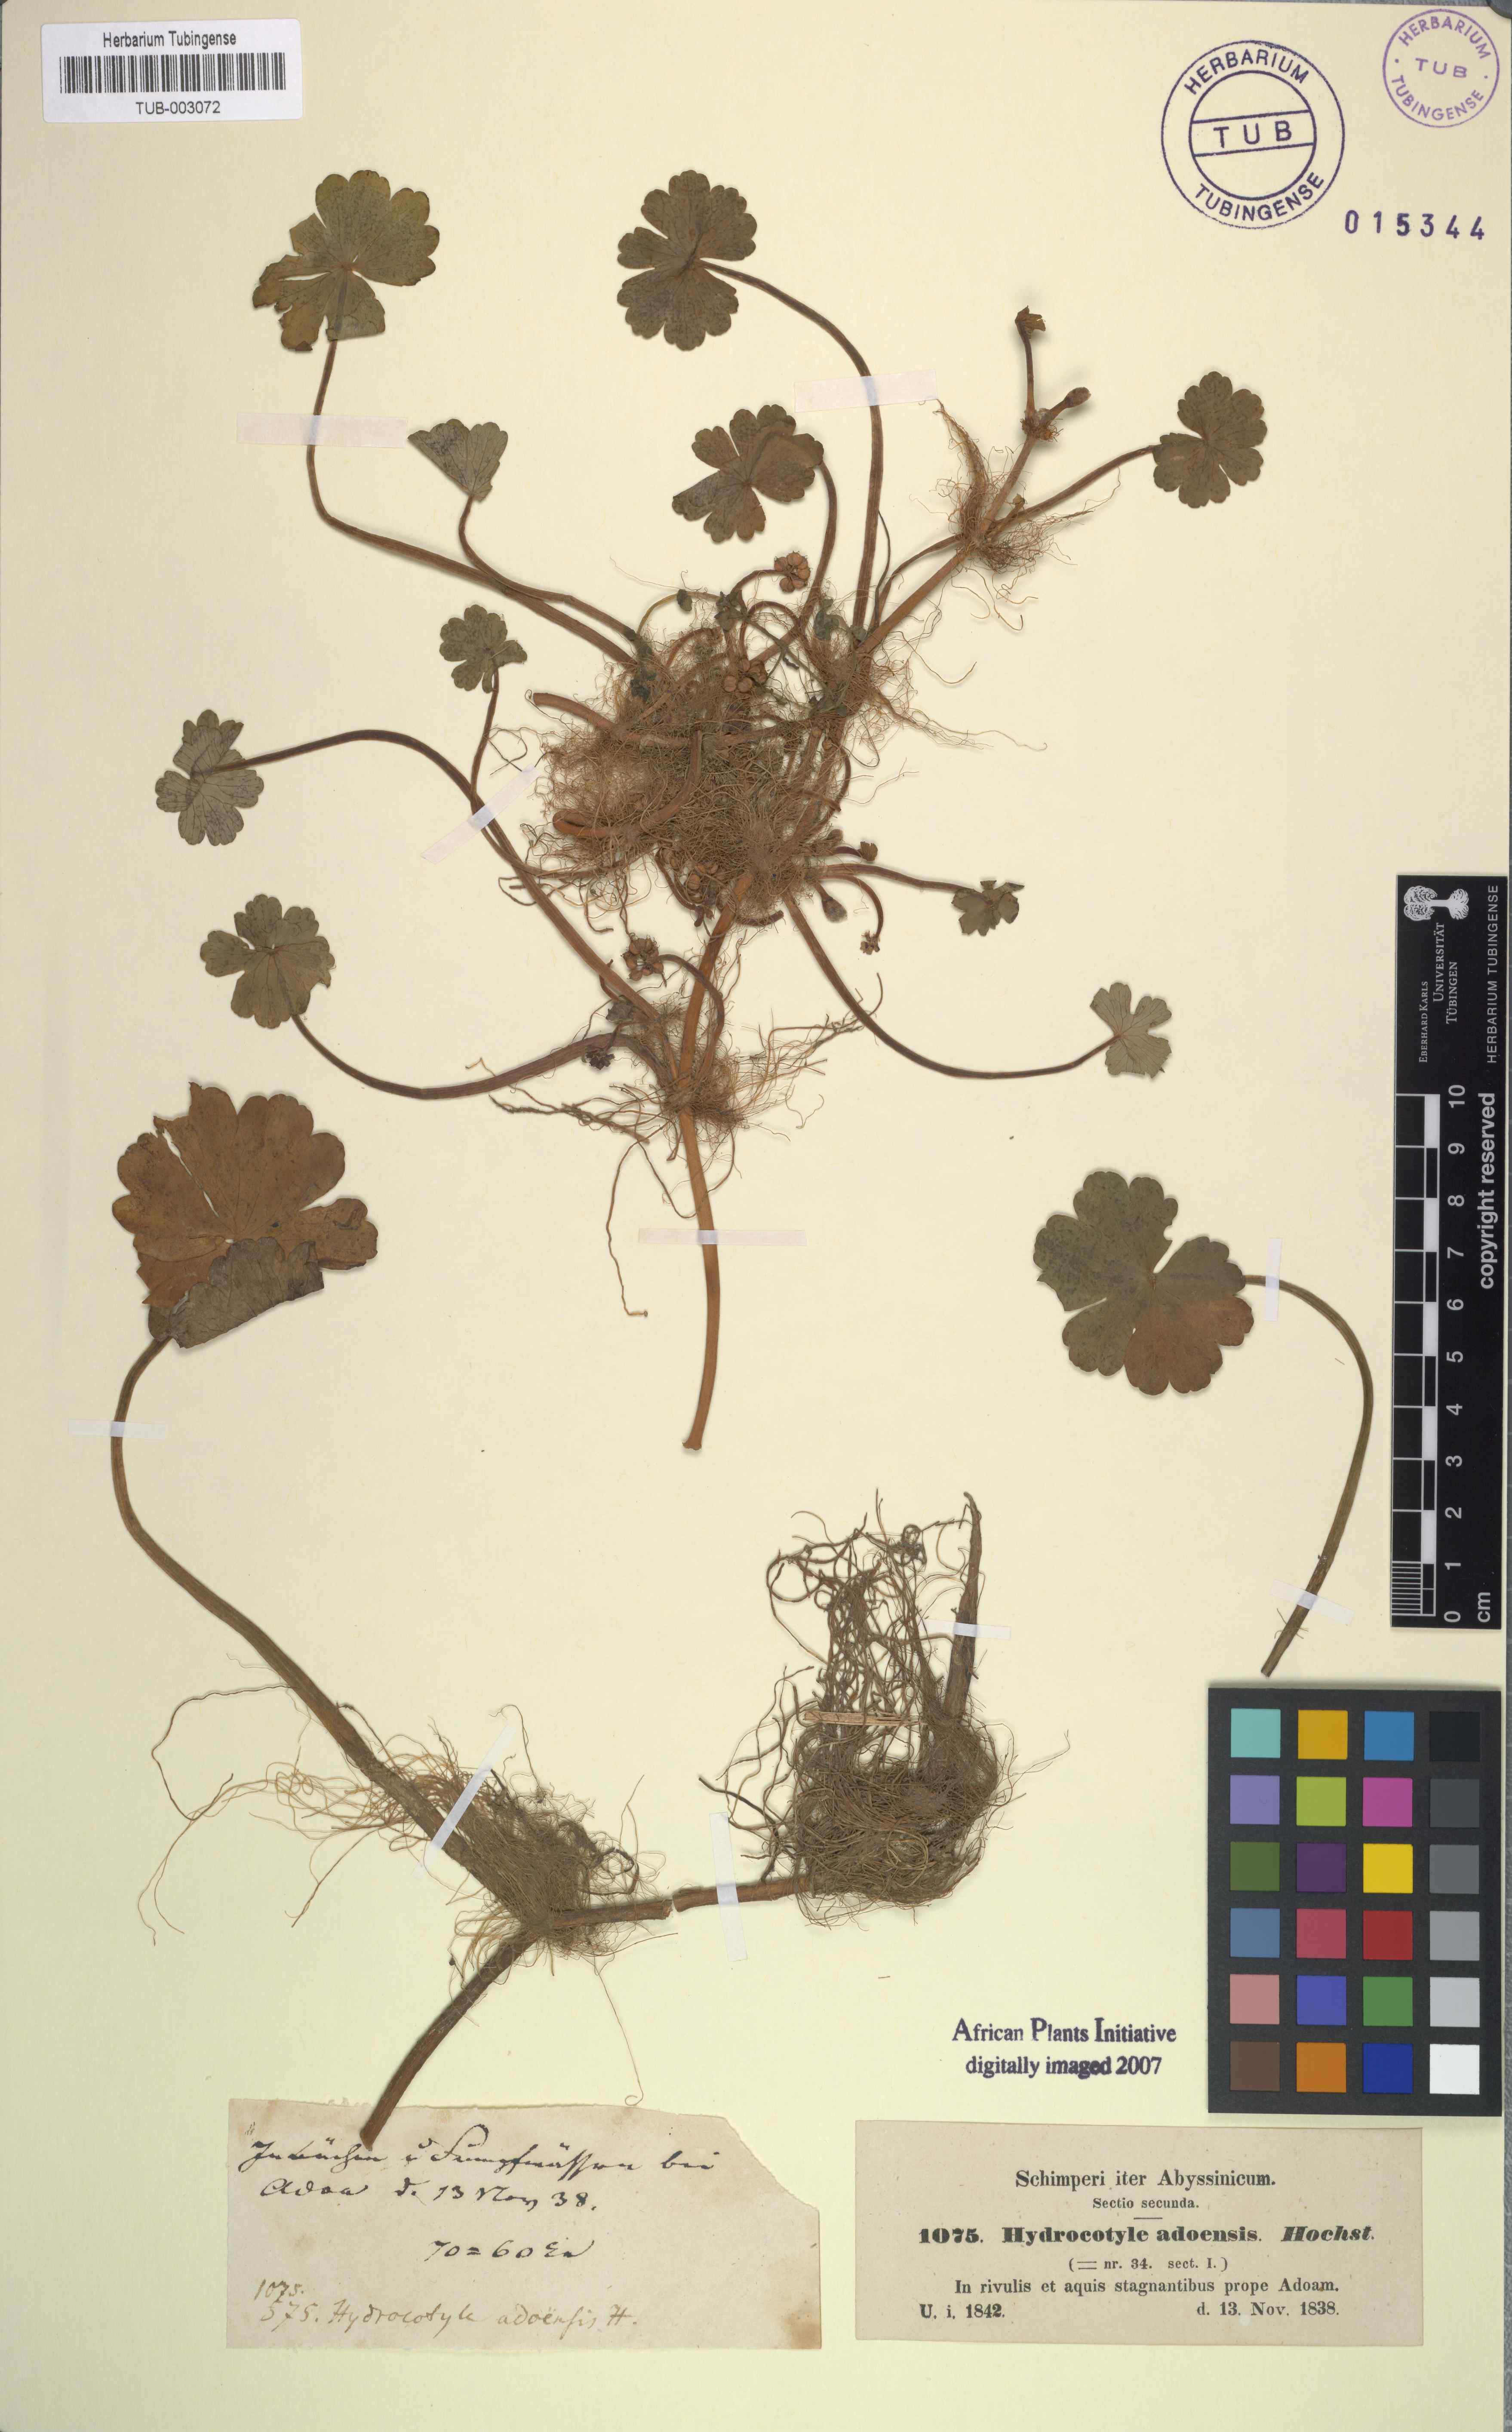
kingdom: Plantae
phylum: Tracheophyta
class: Magnoliopsida
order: Apiales
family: Araliaceae
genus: Hydrocotyle
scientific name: Hydrocotyle ranunculoides
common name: Floating pennywort
